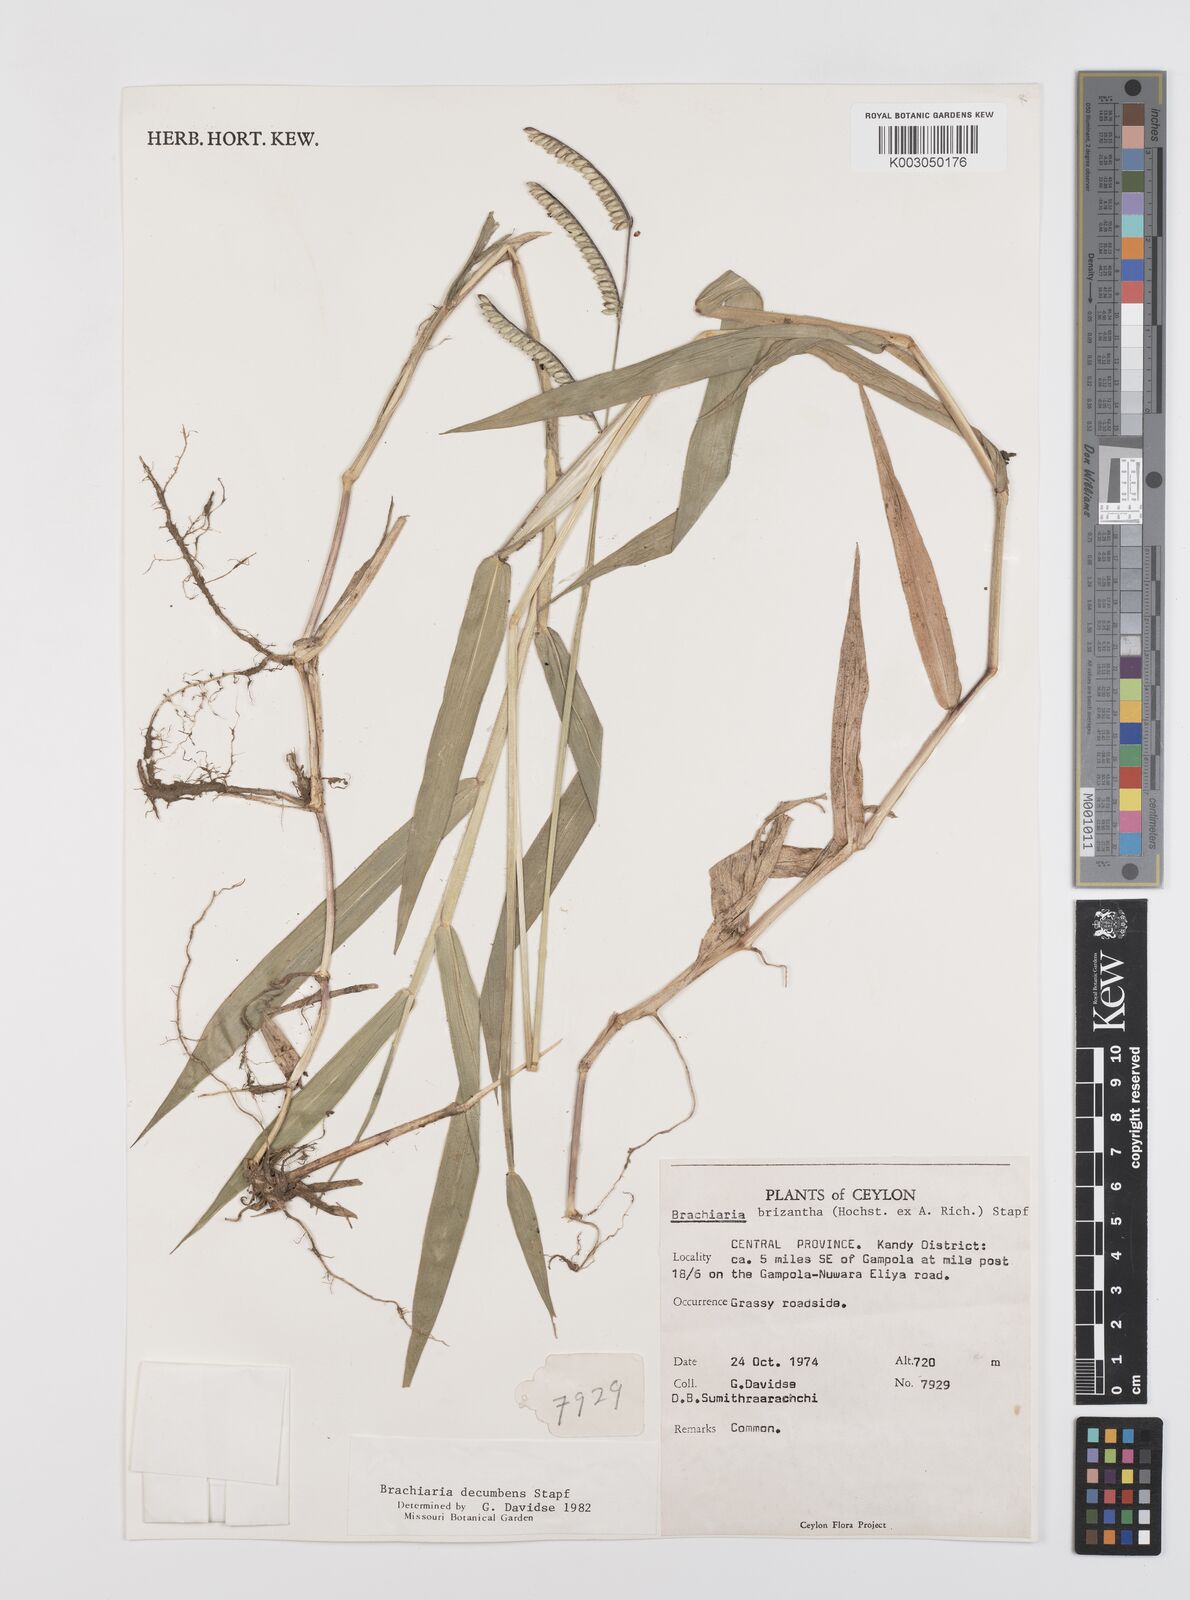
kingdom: Plantae
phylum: Tracheophyta
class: Liliopsida
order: Poales
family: Poaceae
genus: Urochloa
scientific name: Urochloa eminii
